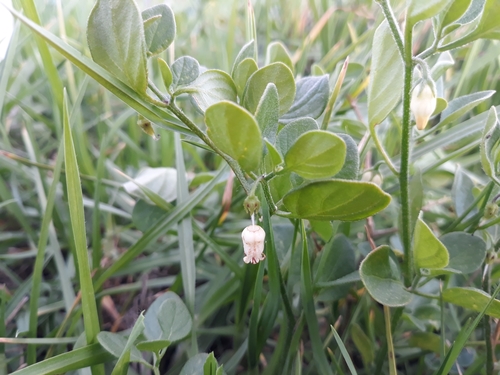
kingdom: Plantae
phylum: Tracheophyta
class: Magnoliopsida
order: Solanales
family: Solanaceae
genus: Salpichroa
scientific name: Salpichroa origanifolia
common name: Lily-of-the-valley-vine
